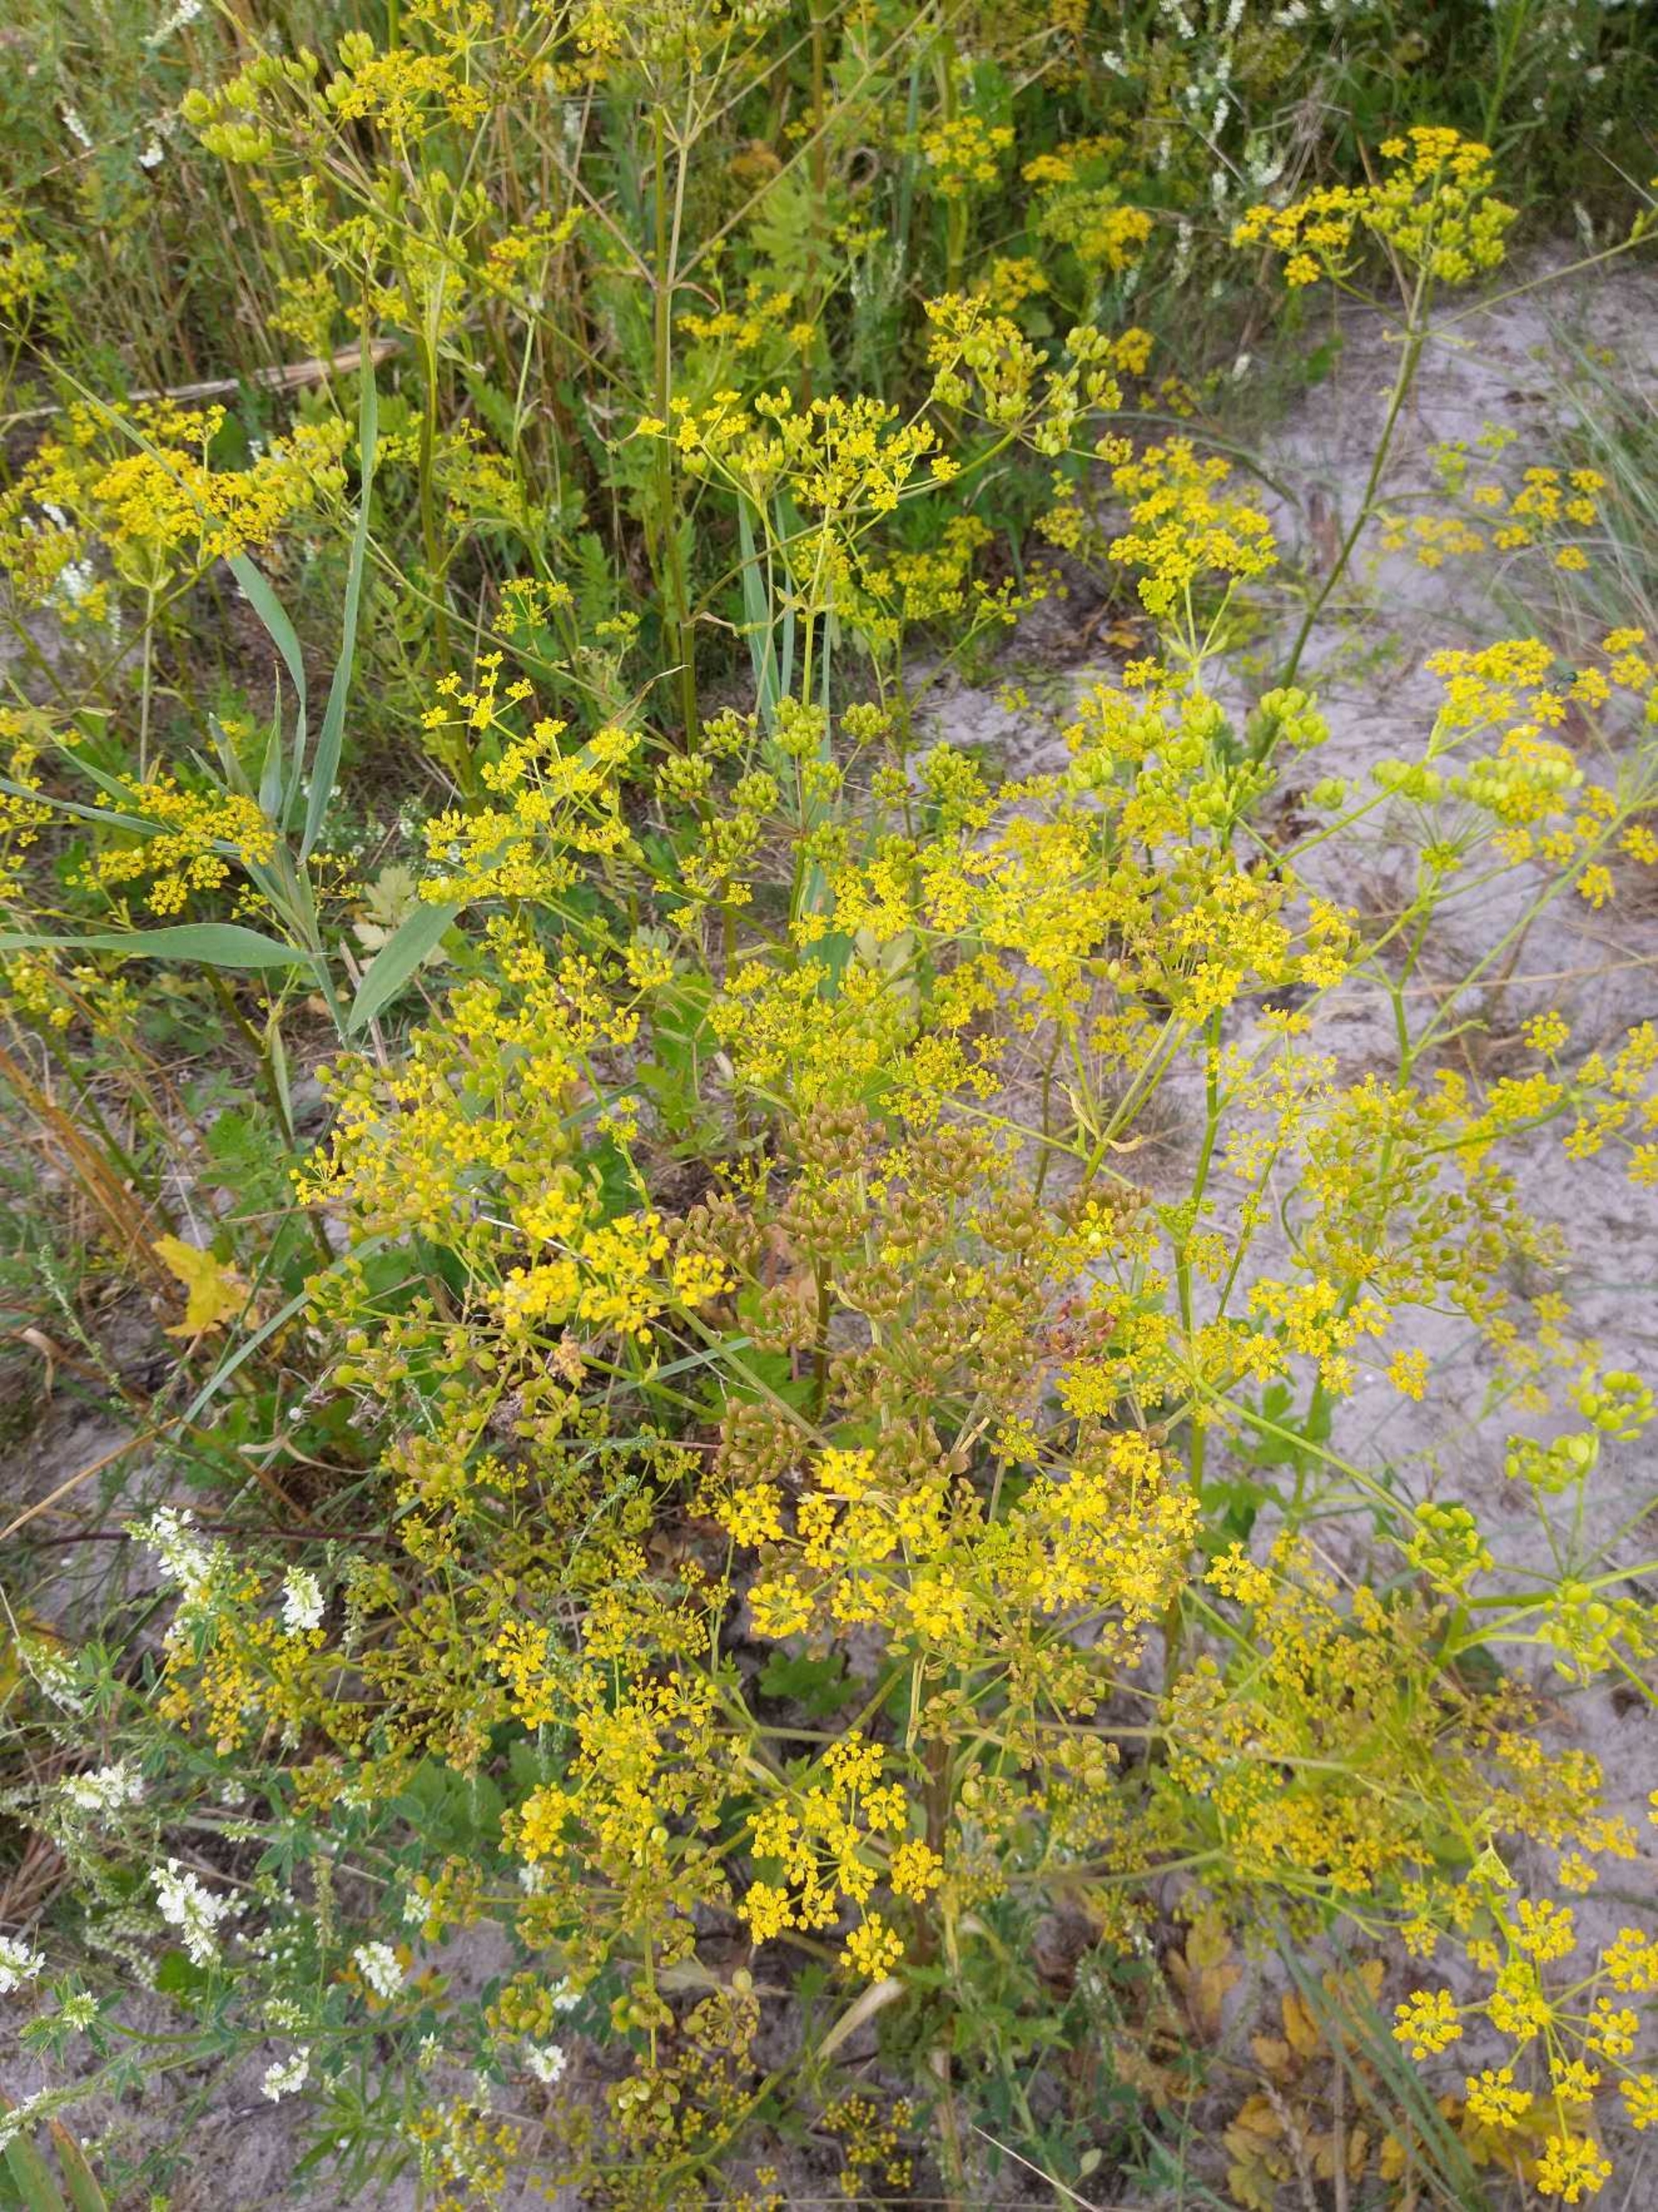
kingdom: Plantae
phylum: Tracheophyta
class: Magnoliopsida
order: Apiales
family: Apiaceae
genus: Pastinaca
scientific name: Pastinaca sativa
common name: Vild pastinak
